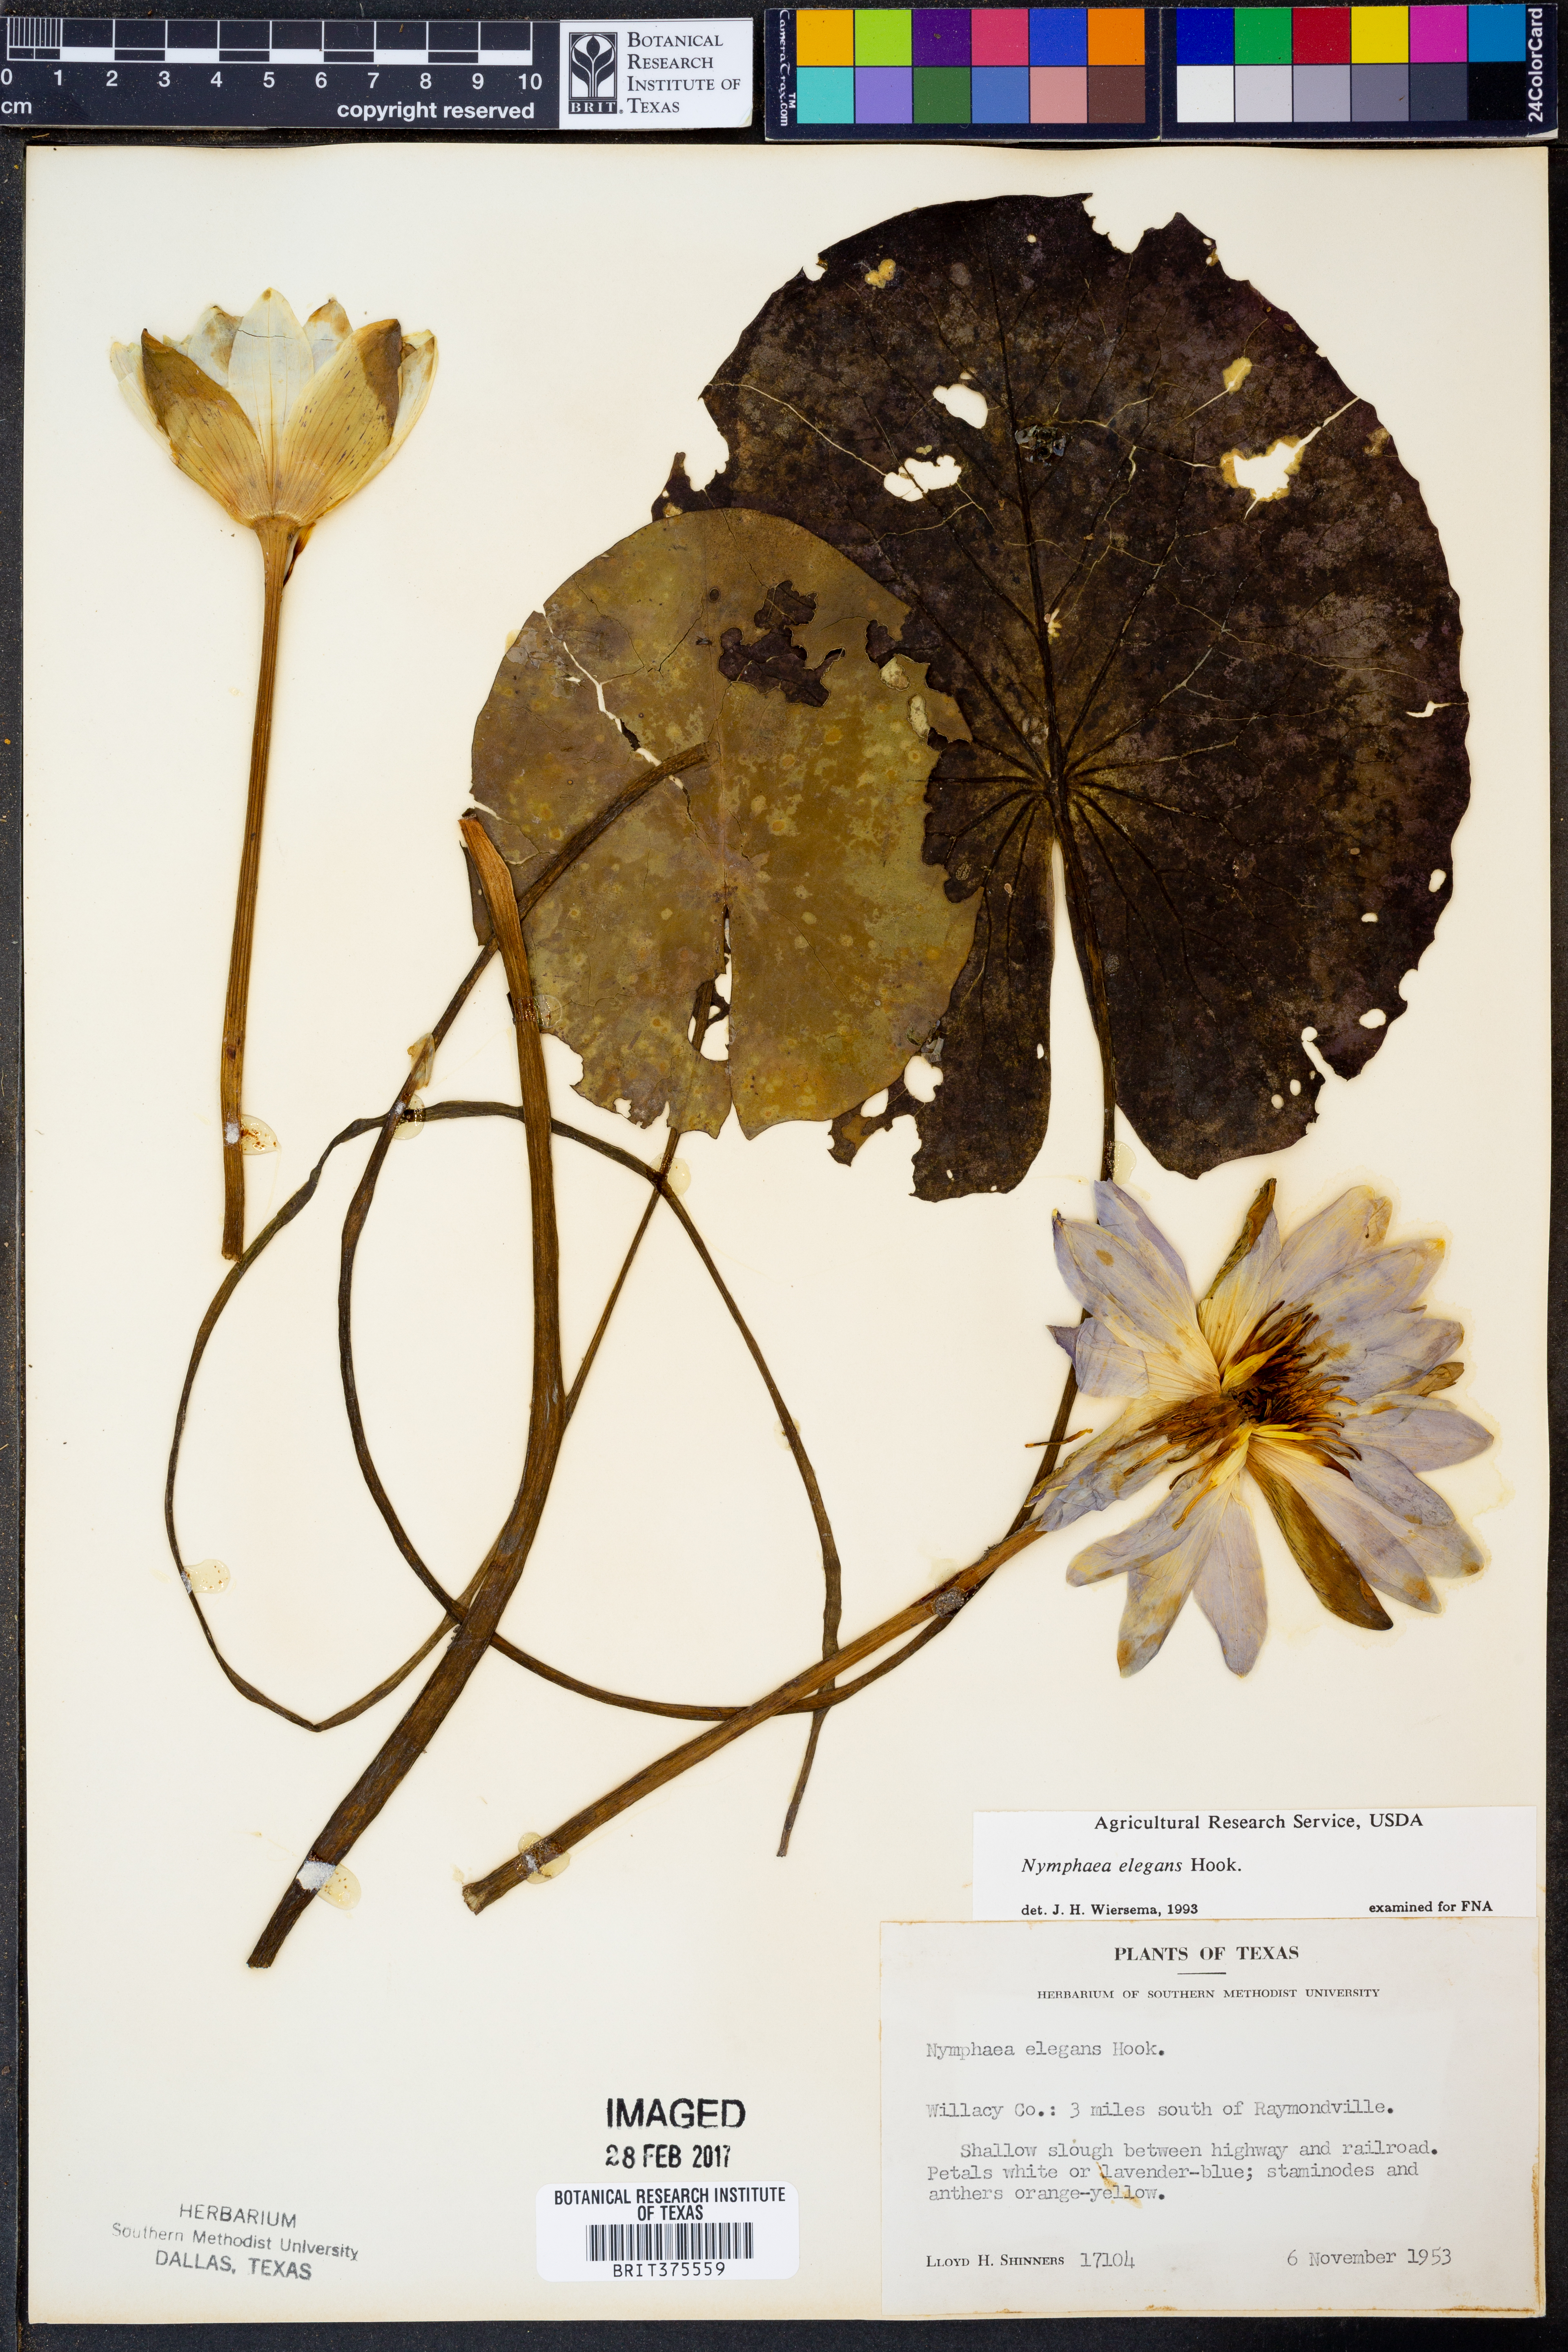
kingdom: Plantae
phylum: Tracheophyta
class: Magnoliopsida
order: Nymphaeales
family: Nymphaeaceae
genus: Nymphaea
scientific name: Nymphaea elegans
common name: Blue water-lily
